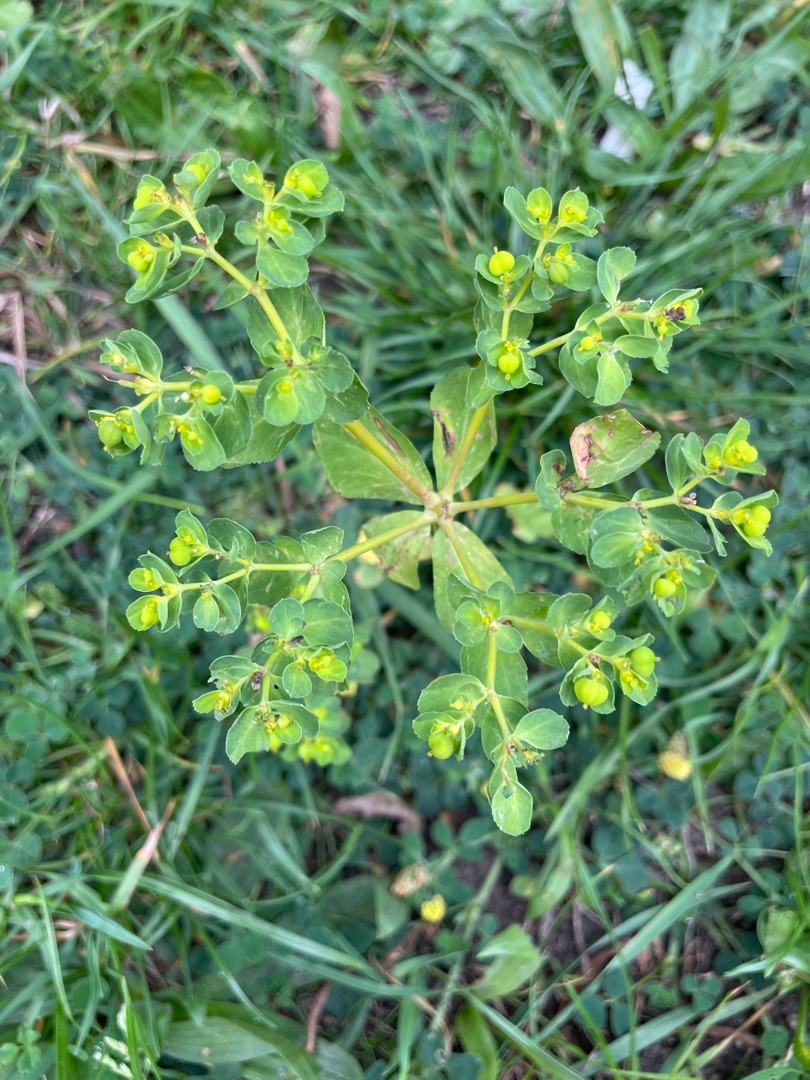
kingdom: Plantae
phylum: Tracheophyta
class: Magnoliopsida
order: Malpighiales
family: Euphorbiaceae
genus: Euphorbia
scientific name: Euphorbia helioscopia
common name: Skærm-vortemælk
